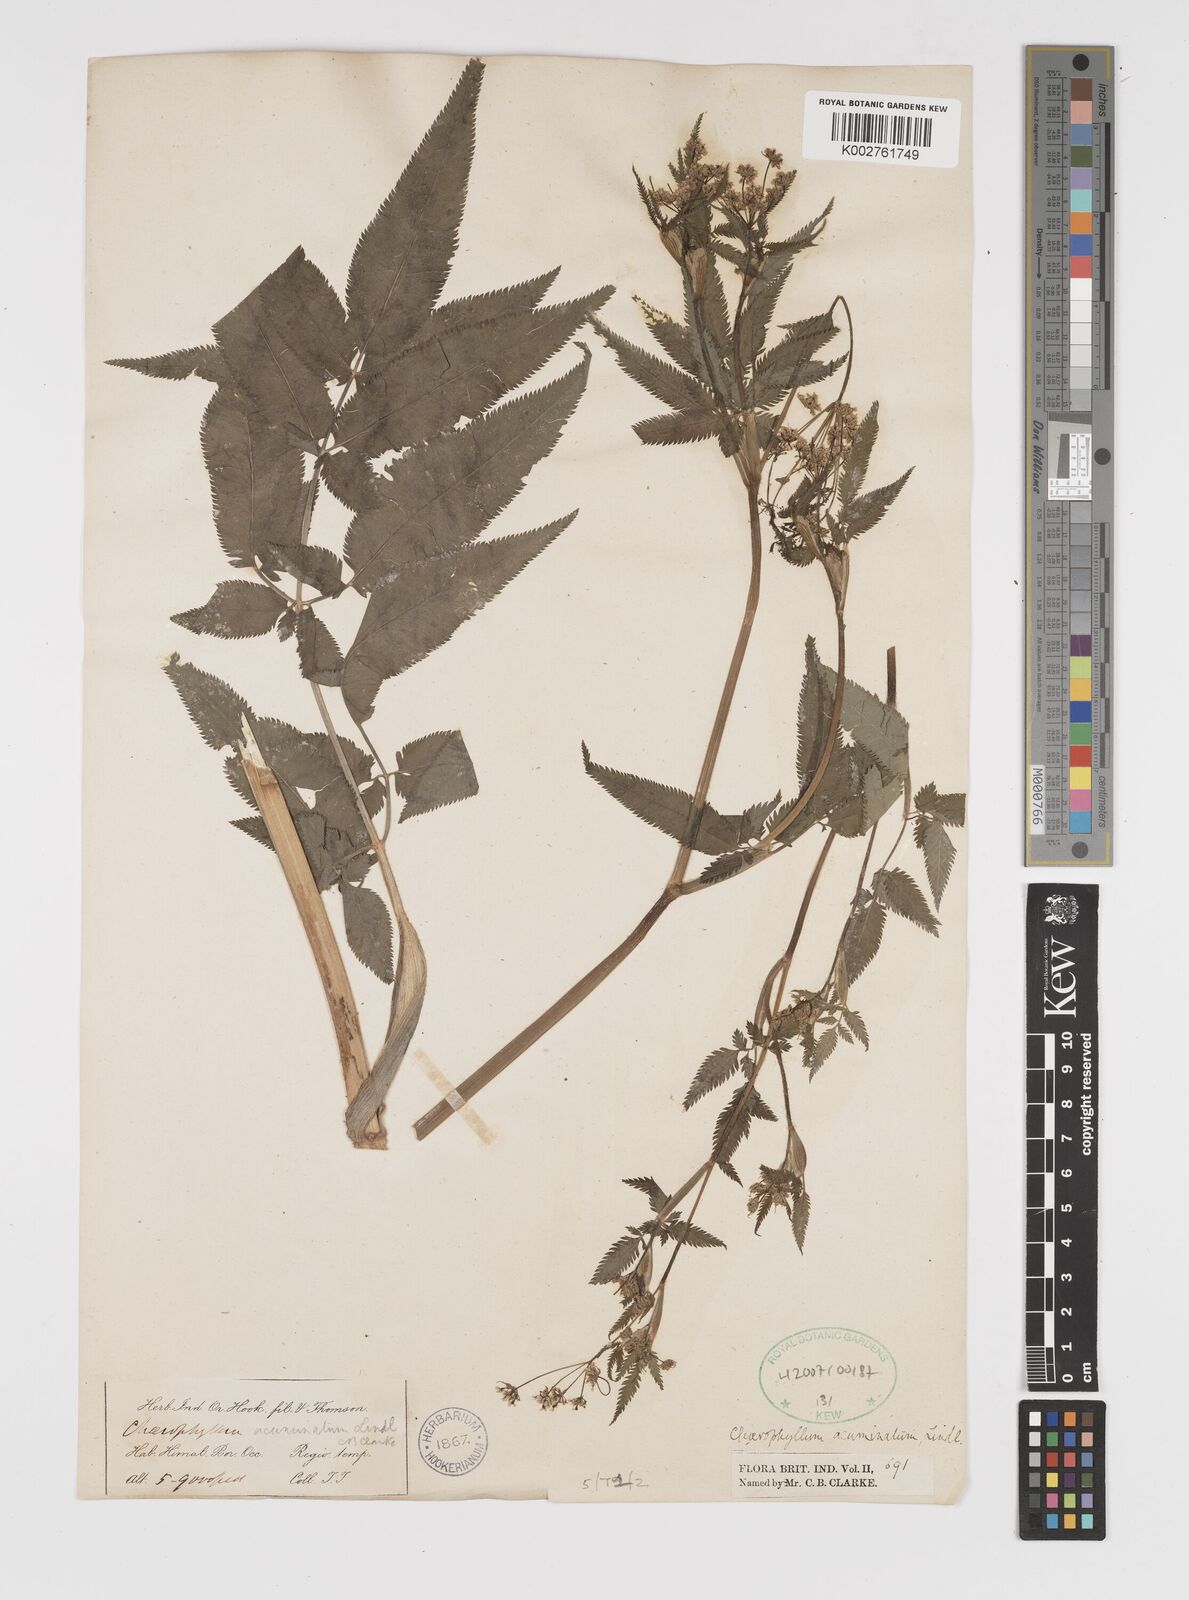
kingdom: Plantae
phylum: Tracheophyta
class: Magnoliopsida
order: Apiales
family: Apiaceae
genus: Chaerophyllum
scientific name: Chaerophyllum reflexum
